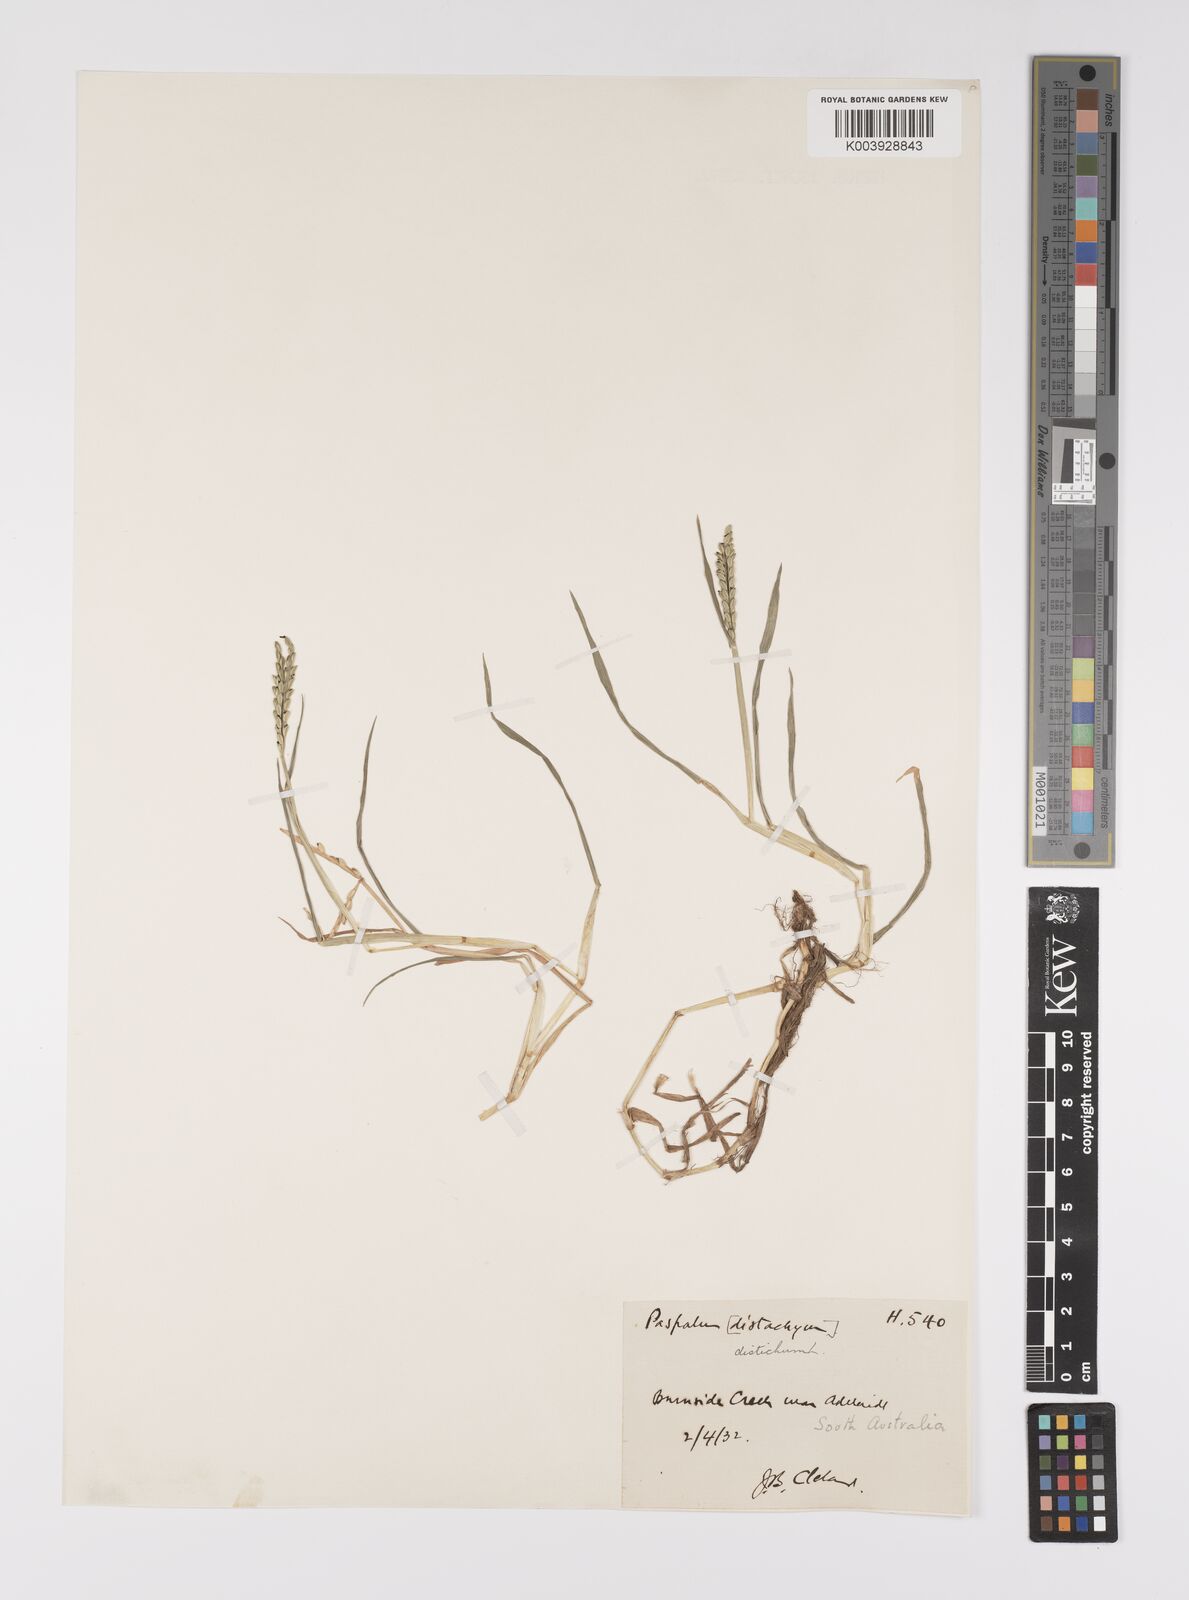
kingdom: Plantae
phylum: Tracheophyta
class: Liliopsida
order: Poales
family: Poaceae
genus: Paspalum
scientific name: Paspalum distichum
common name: Knotgrass
